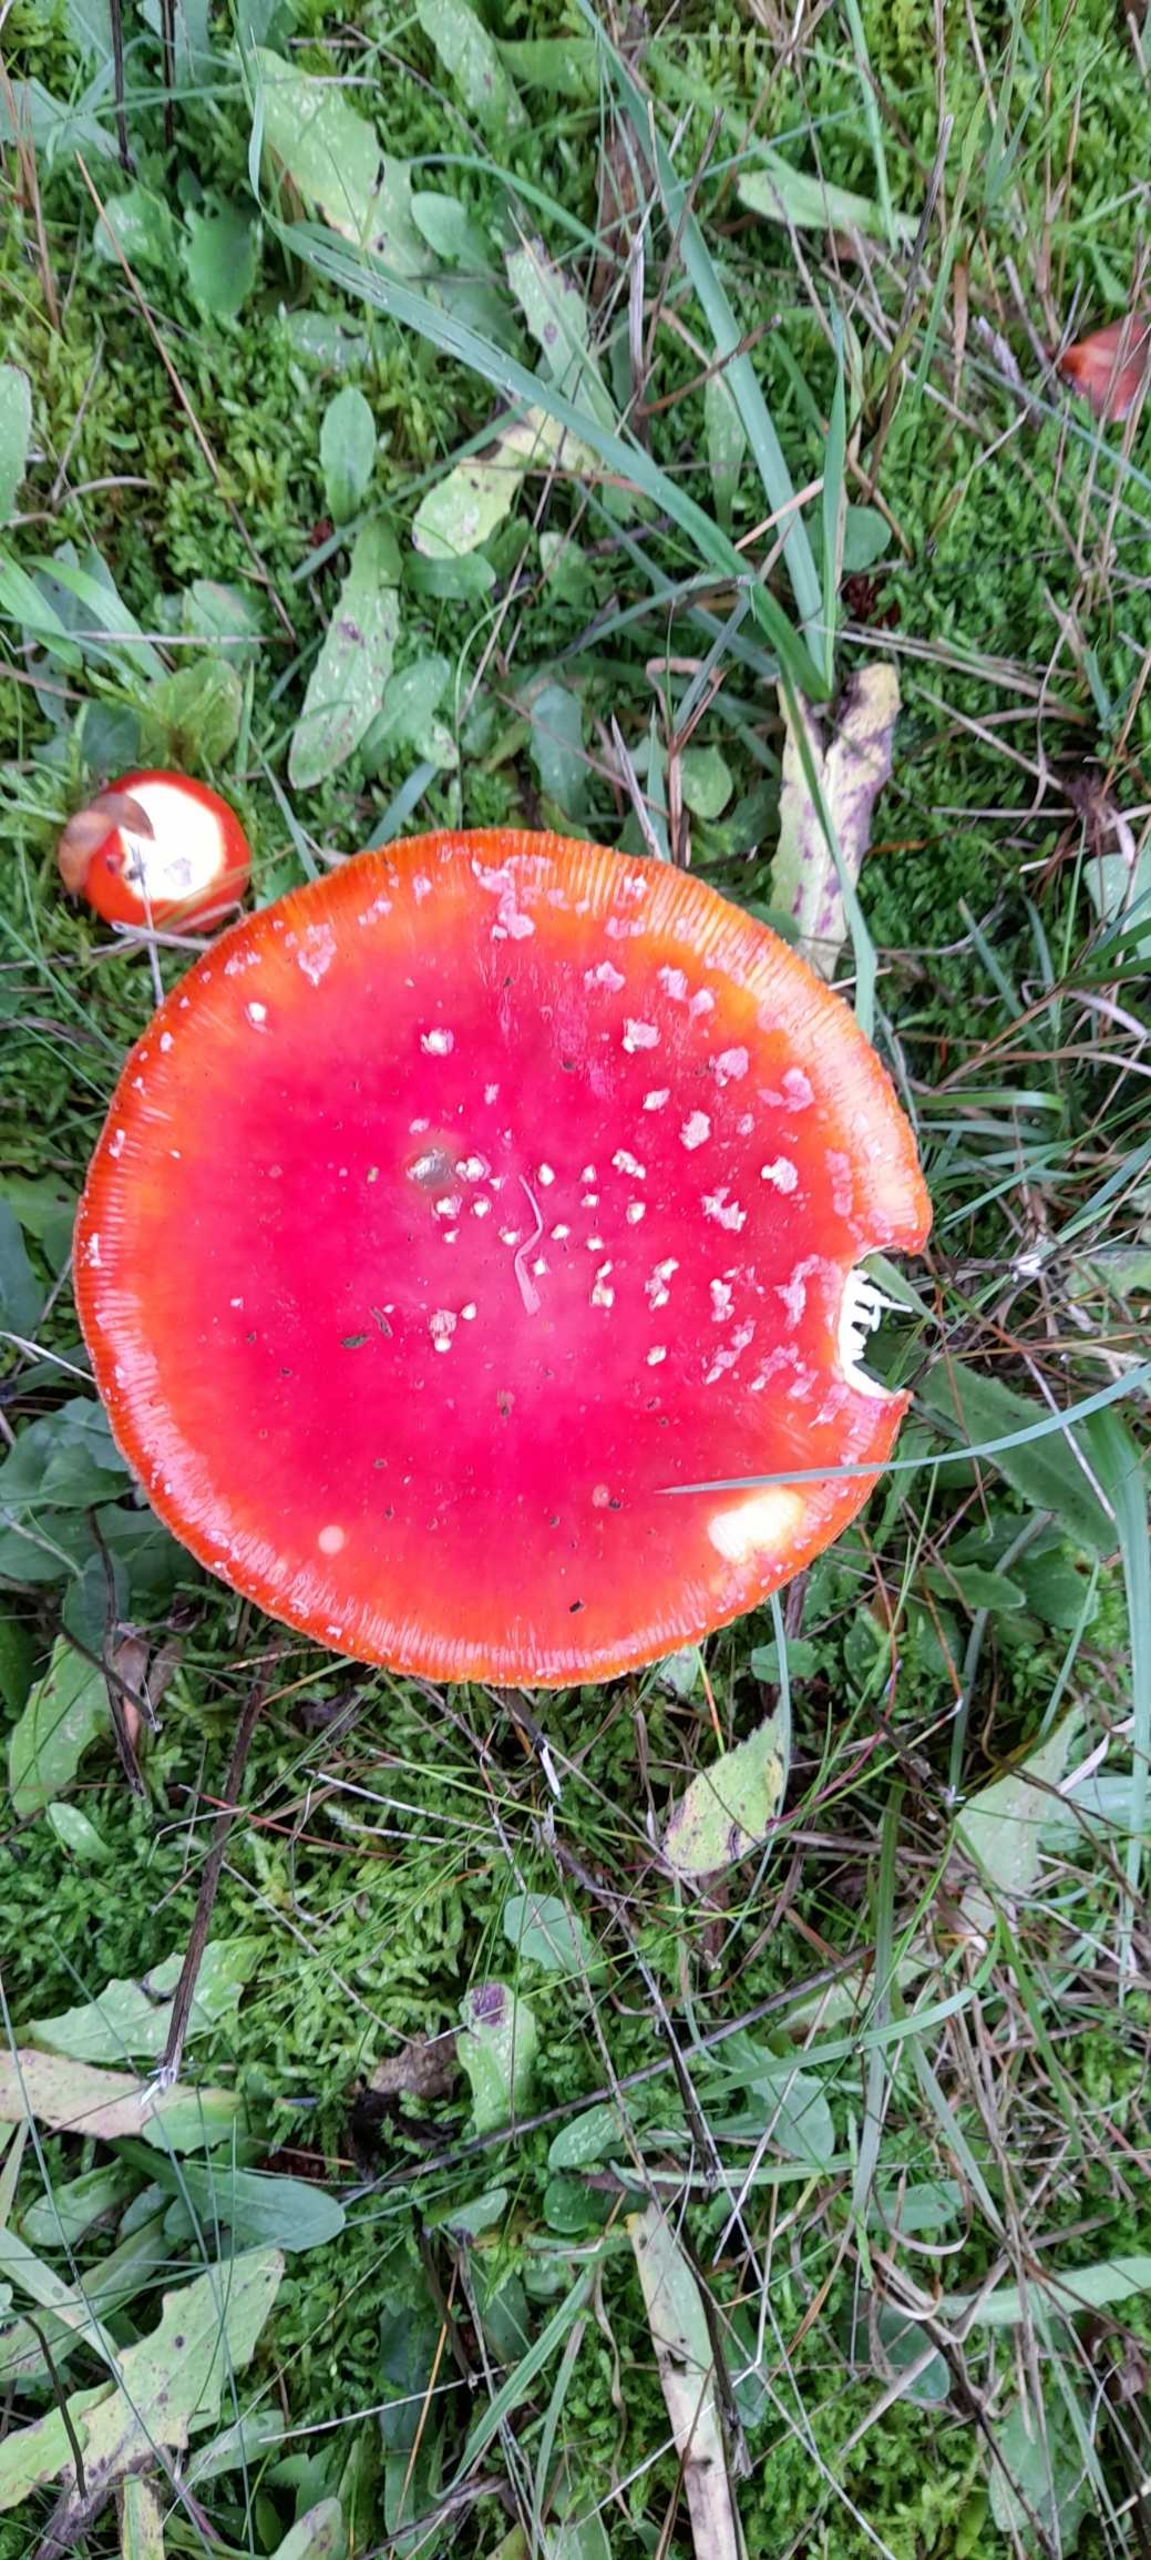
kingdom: Fungi
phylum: Basidiomycota
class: Agaricomycetes
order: Agaricales
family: Amanitaceae
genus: Amanita
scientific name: Amanita muscaria
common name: Rød fluesvamp
